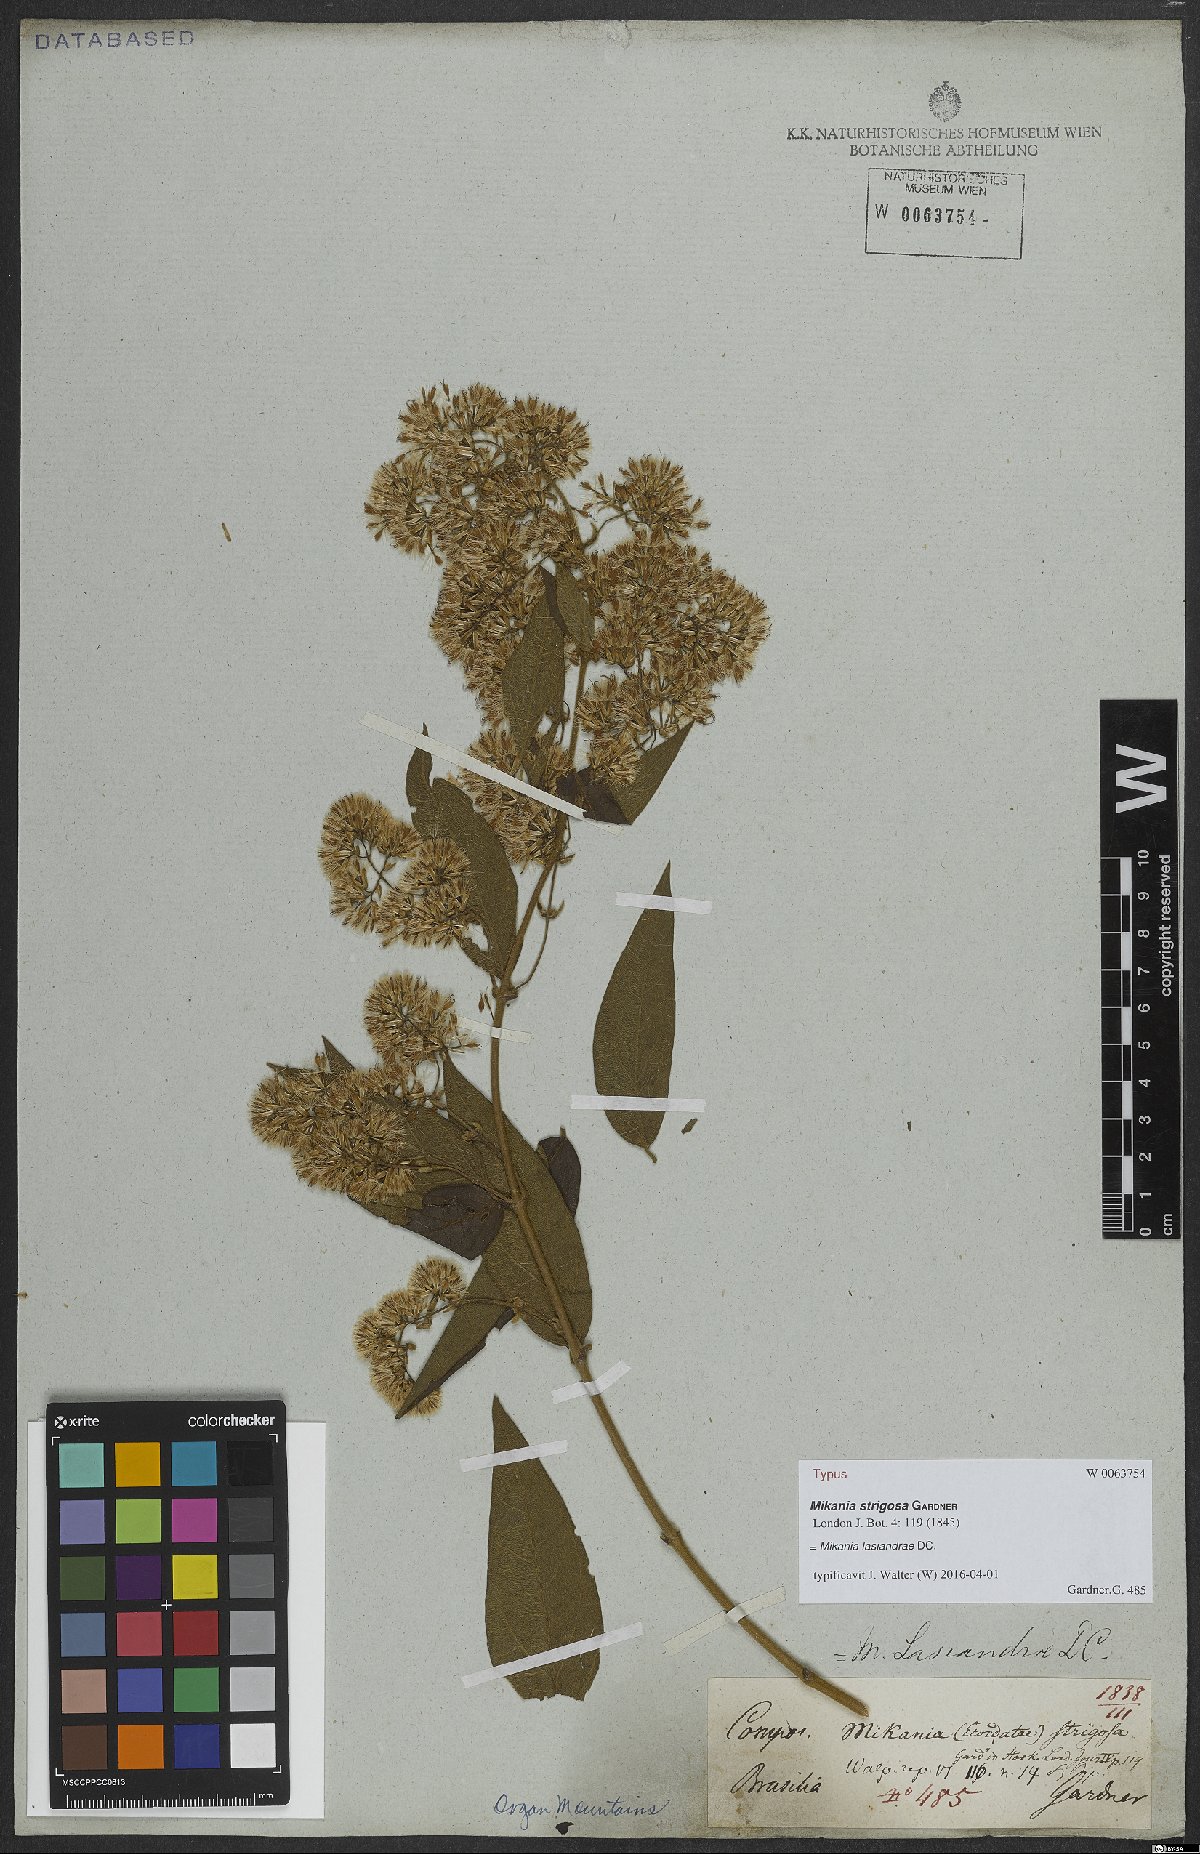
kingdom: Plantae
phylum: Tracheophyta
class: Magnoliopsida
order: Asterales
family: Asteraceae
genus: Mikania
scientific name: Mikania lasiandrae
